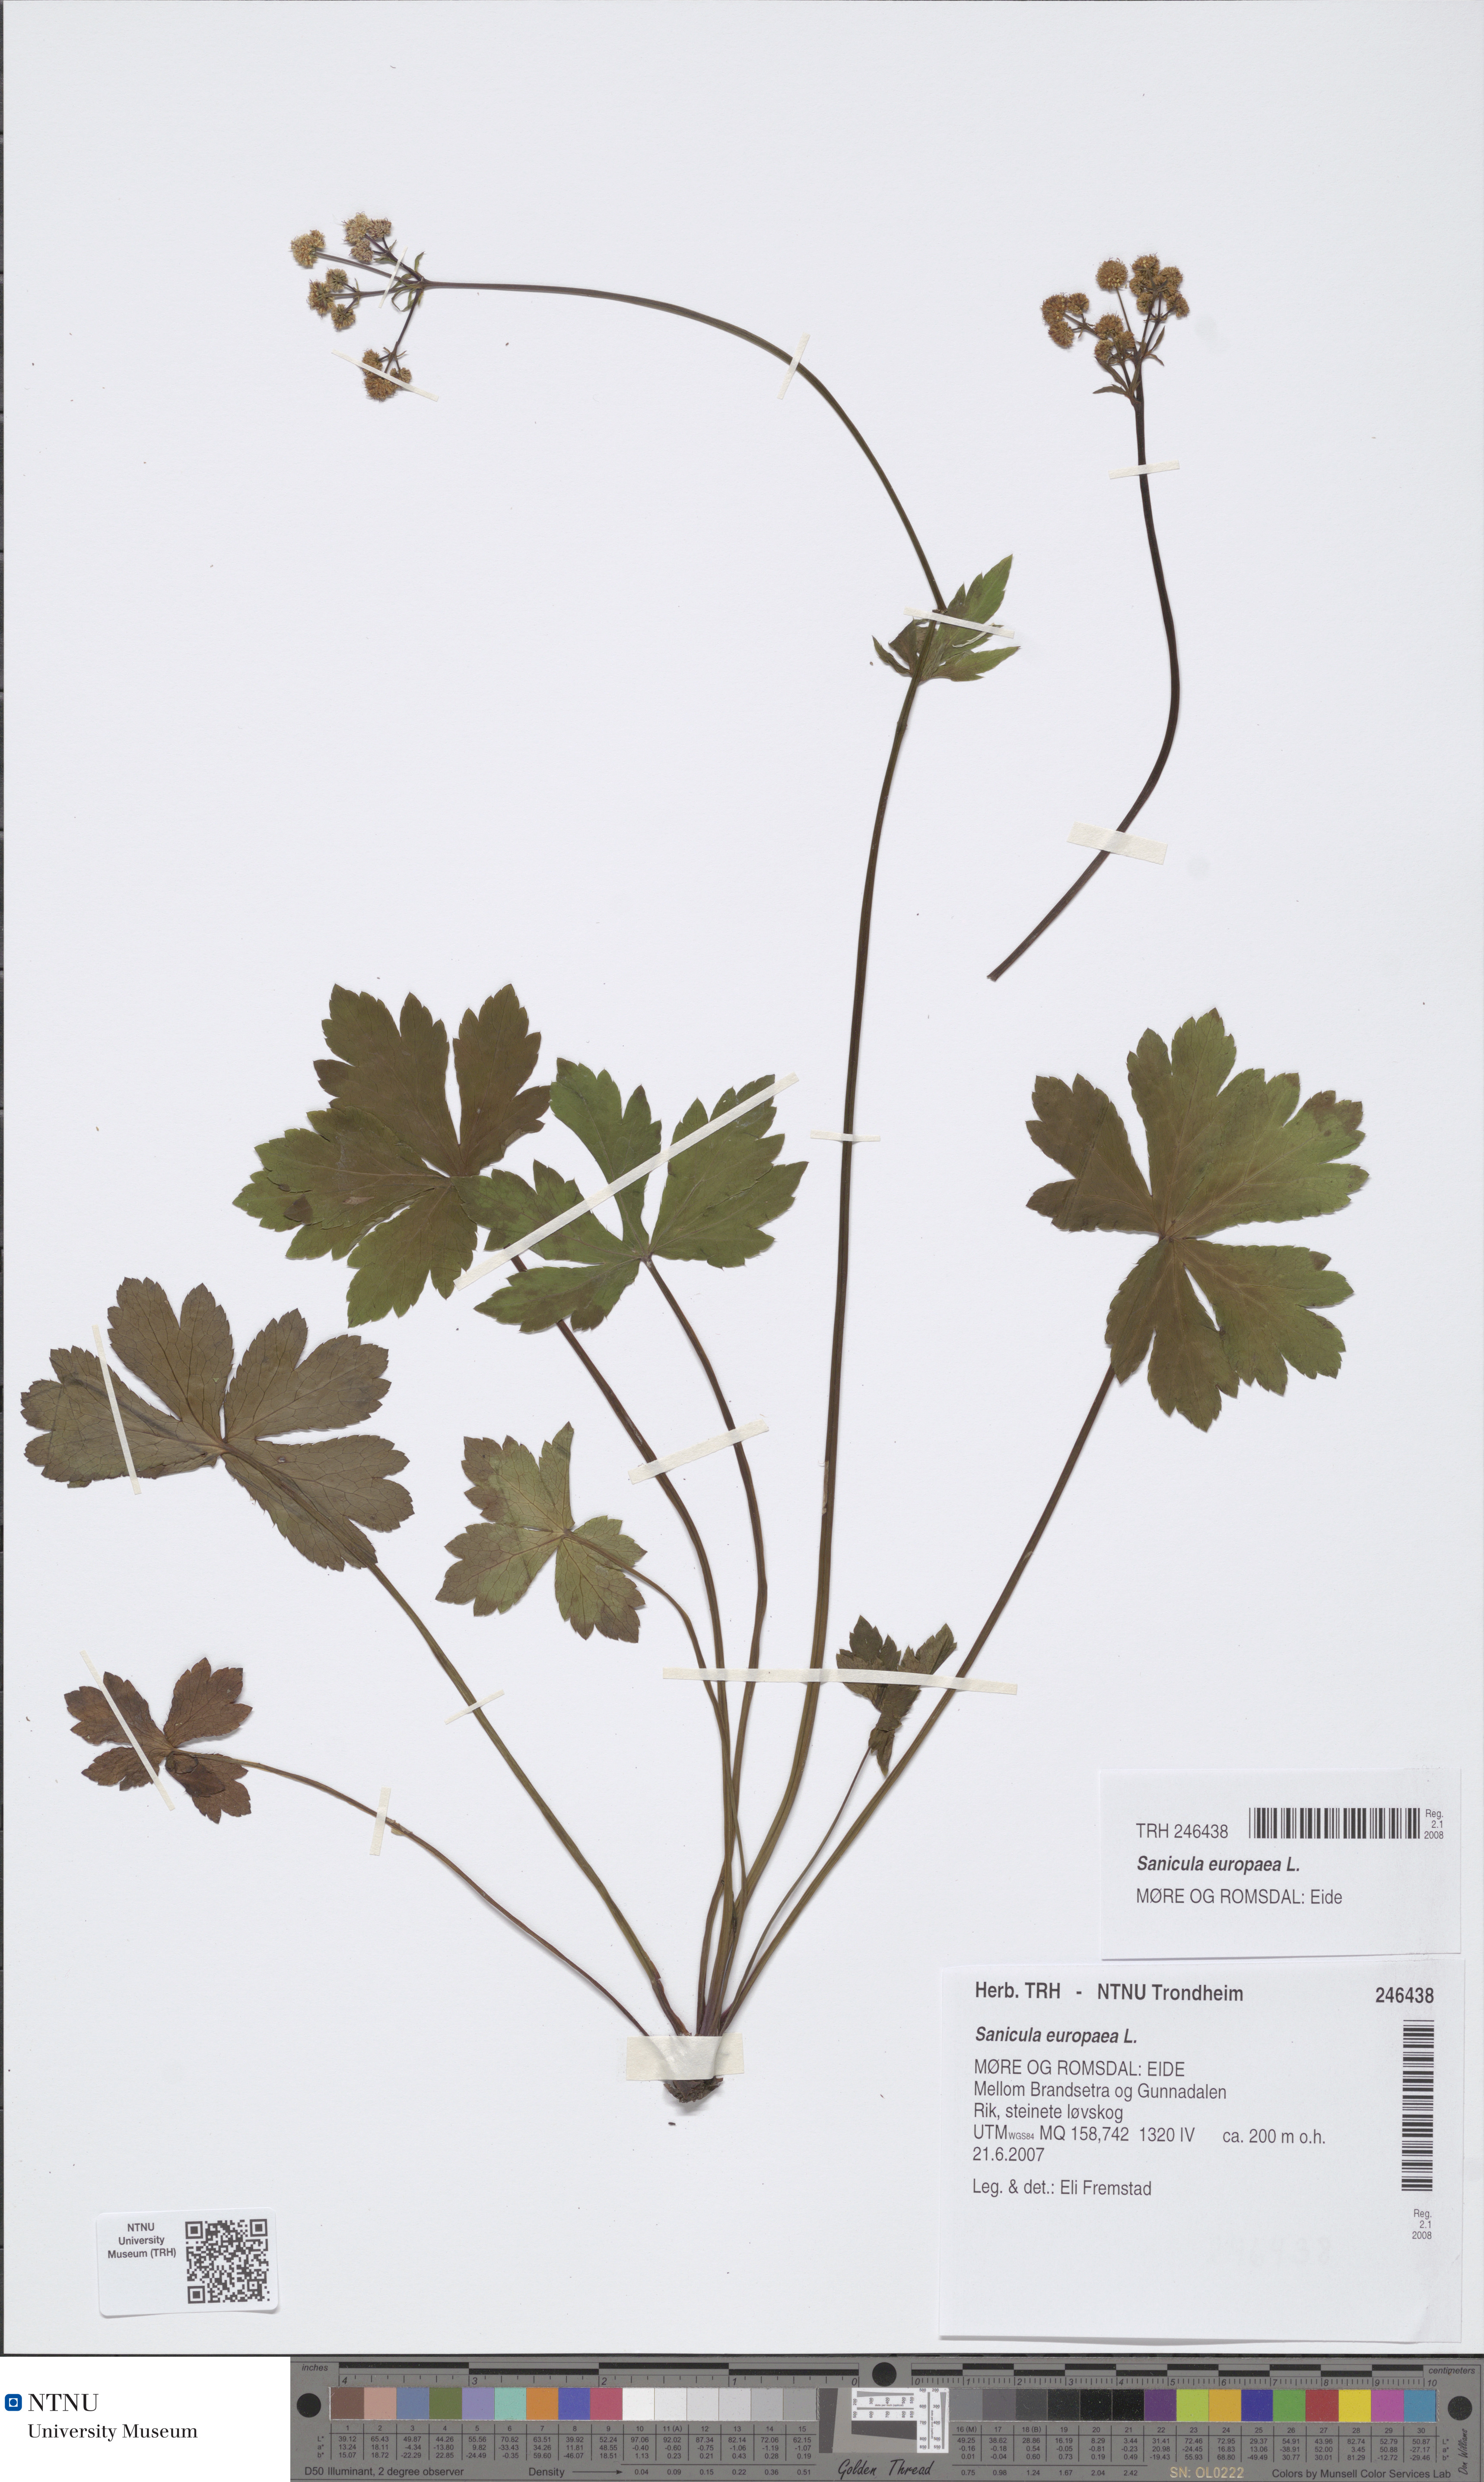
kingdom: Plantae
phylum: Tracheophyta
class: Magnoliopsida
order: Apiales
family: Apiaceae
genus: Sanicula
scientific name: Sanicula europaea
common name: Sanicle
